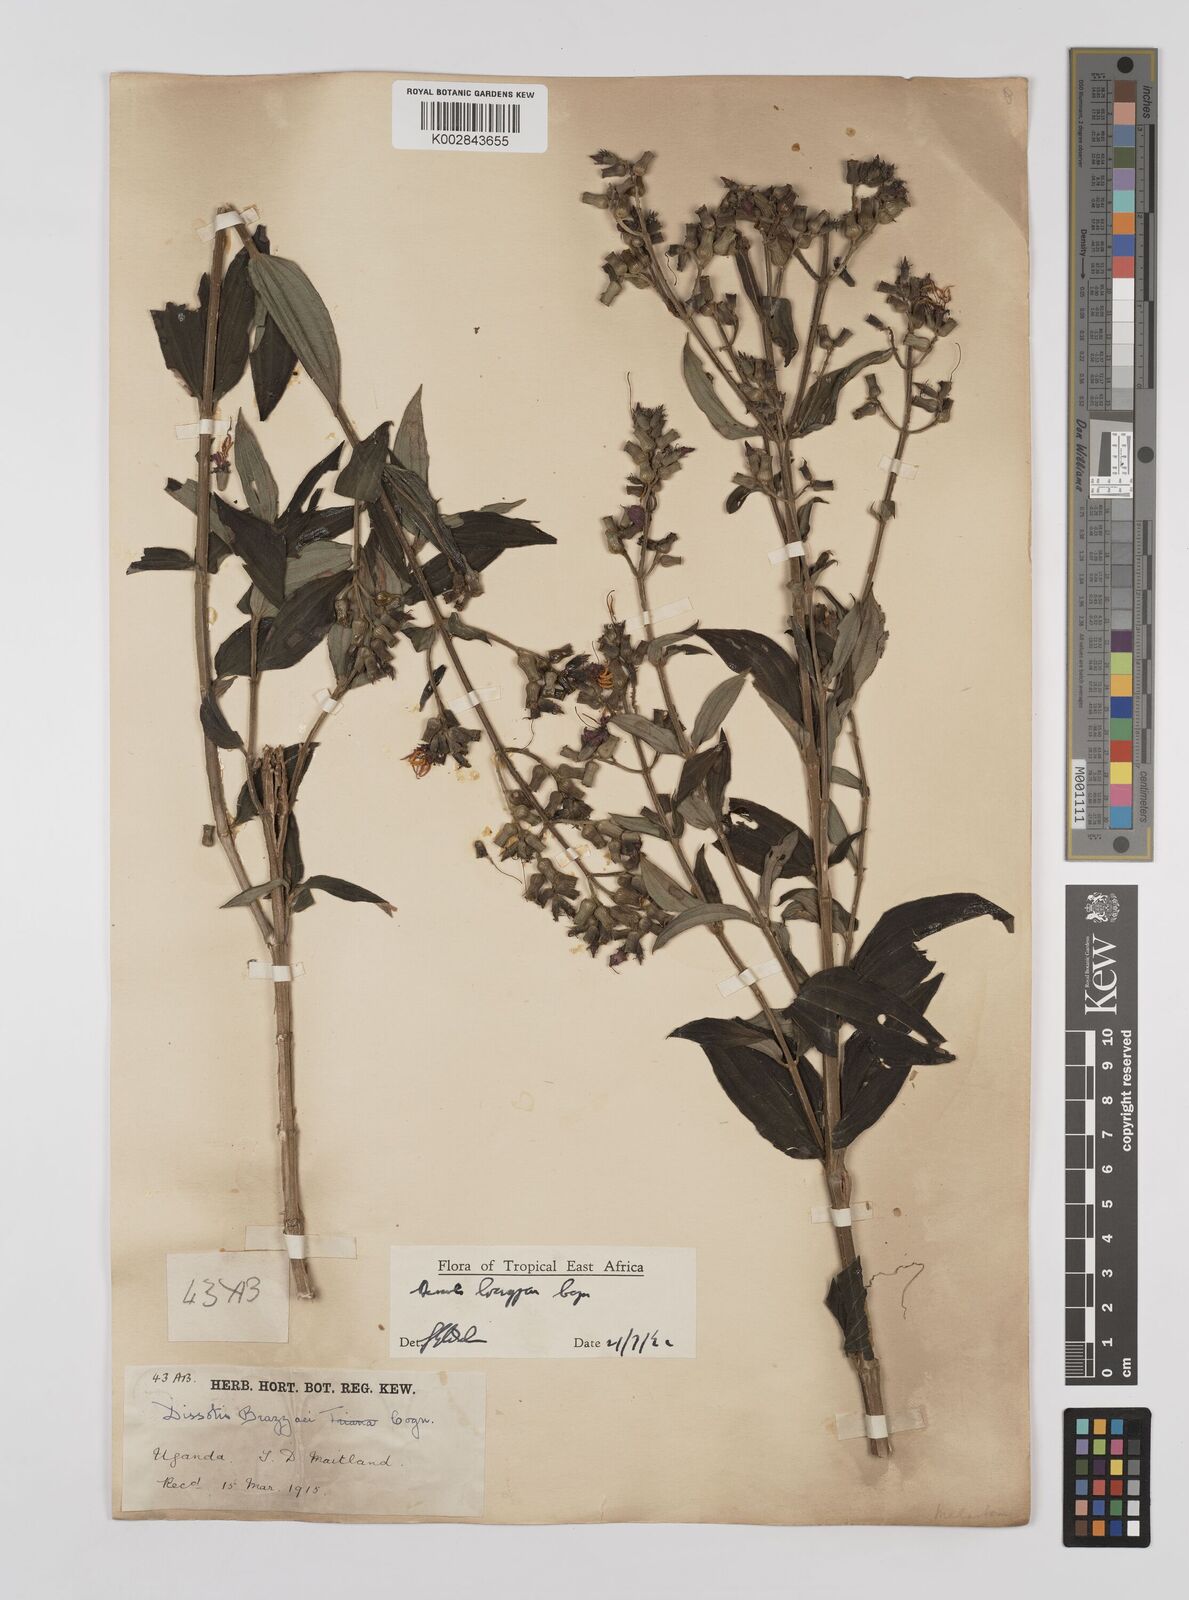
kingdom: Plantae
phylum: Tracheophyta
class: Magnoliopsida
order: Myrtales
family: Melastomataceae
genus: Dupineta
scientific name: Dupineta brazzae
